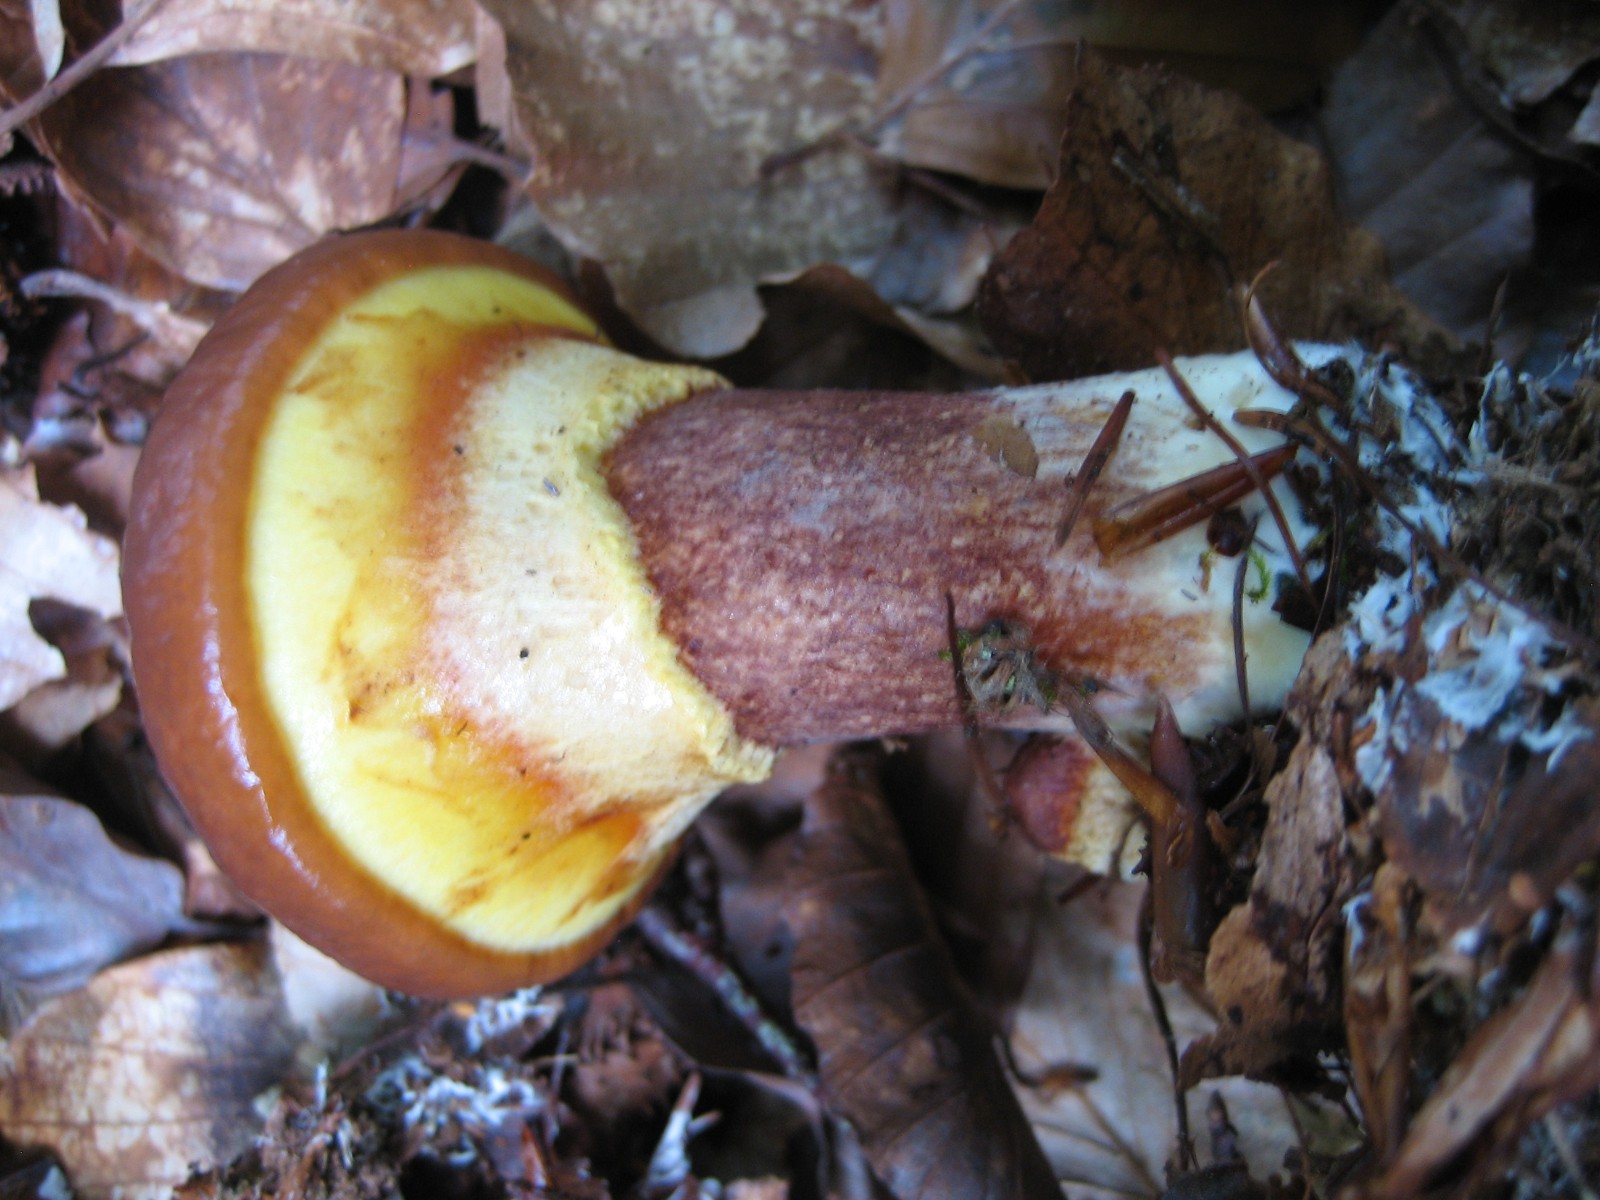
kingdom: Fungi
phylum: Basidiomycota
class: Agaricomycetes
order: Boletales
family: Suillaceae
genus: Suillus
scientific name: Suillus grevillei
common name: lærke-slimrørhat
